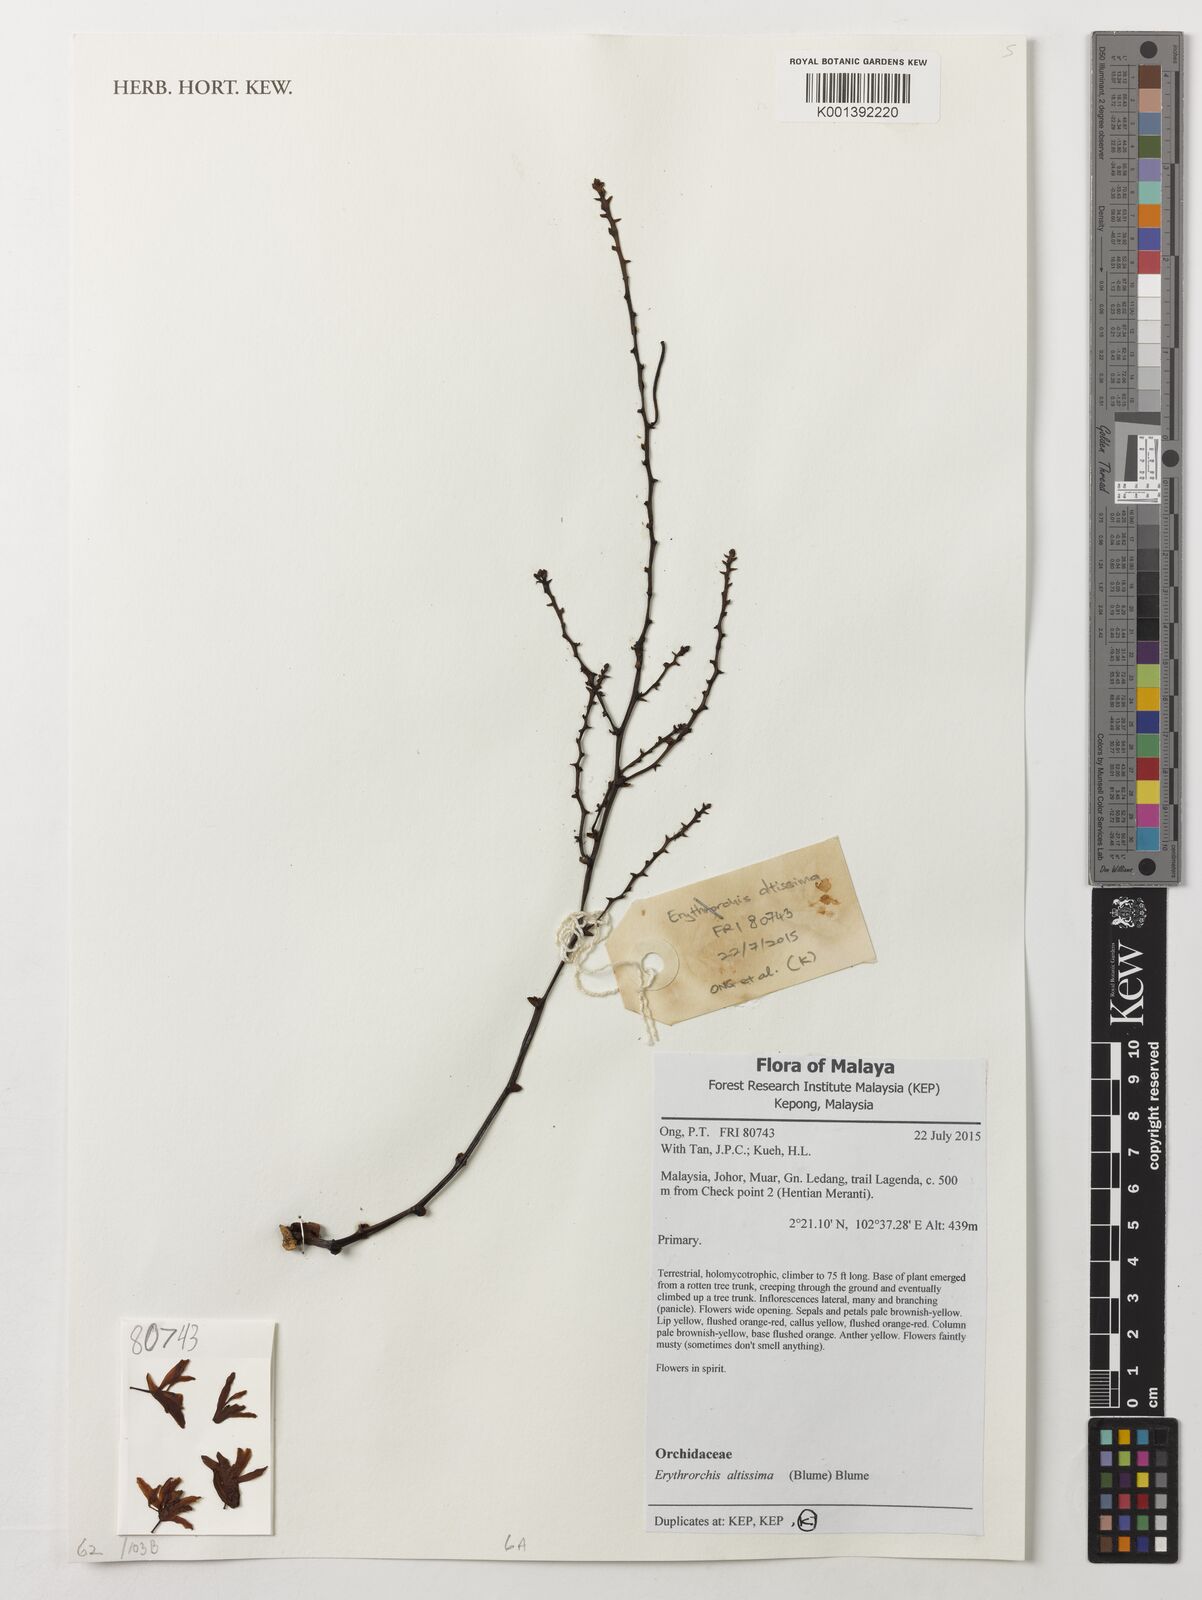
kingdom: Plantae
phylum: Tracheophyta
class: Liliopsida
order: Asparagales
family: Orchidaceae
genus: Erythrorchis
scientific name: Erythrorchis altissima
